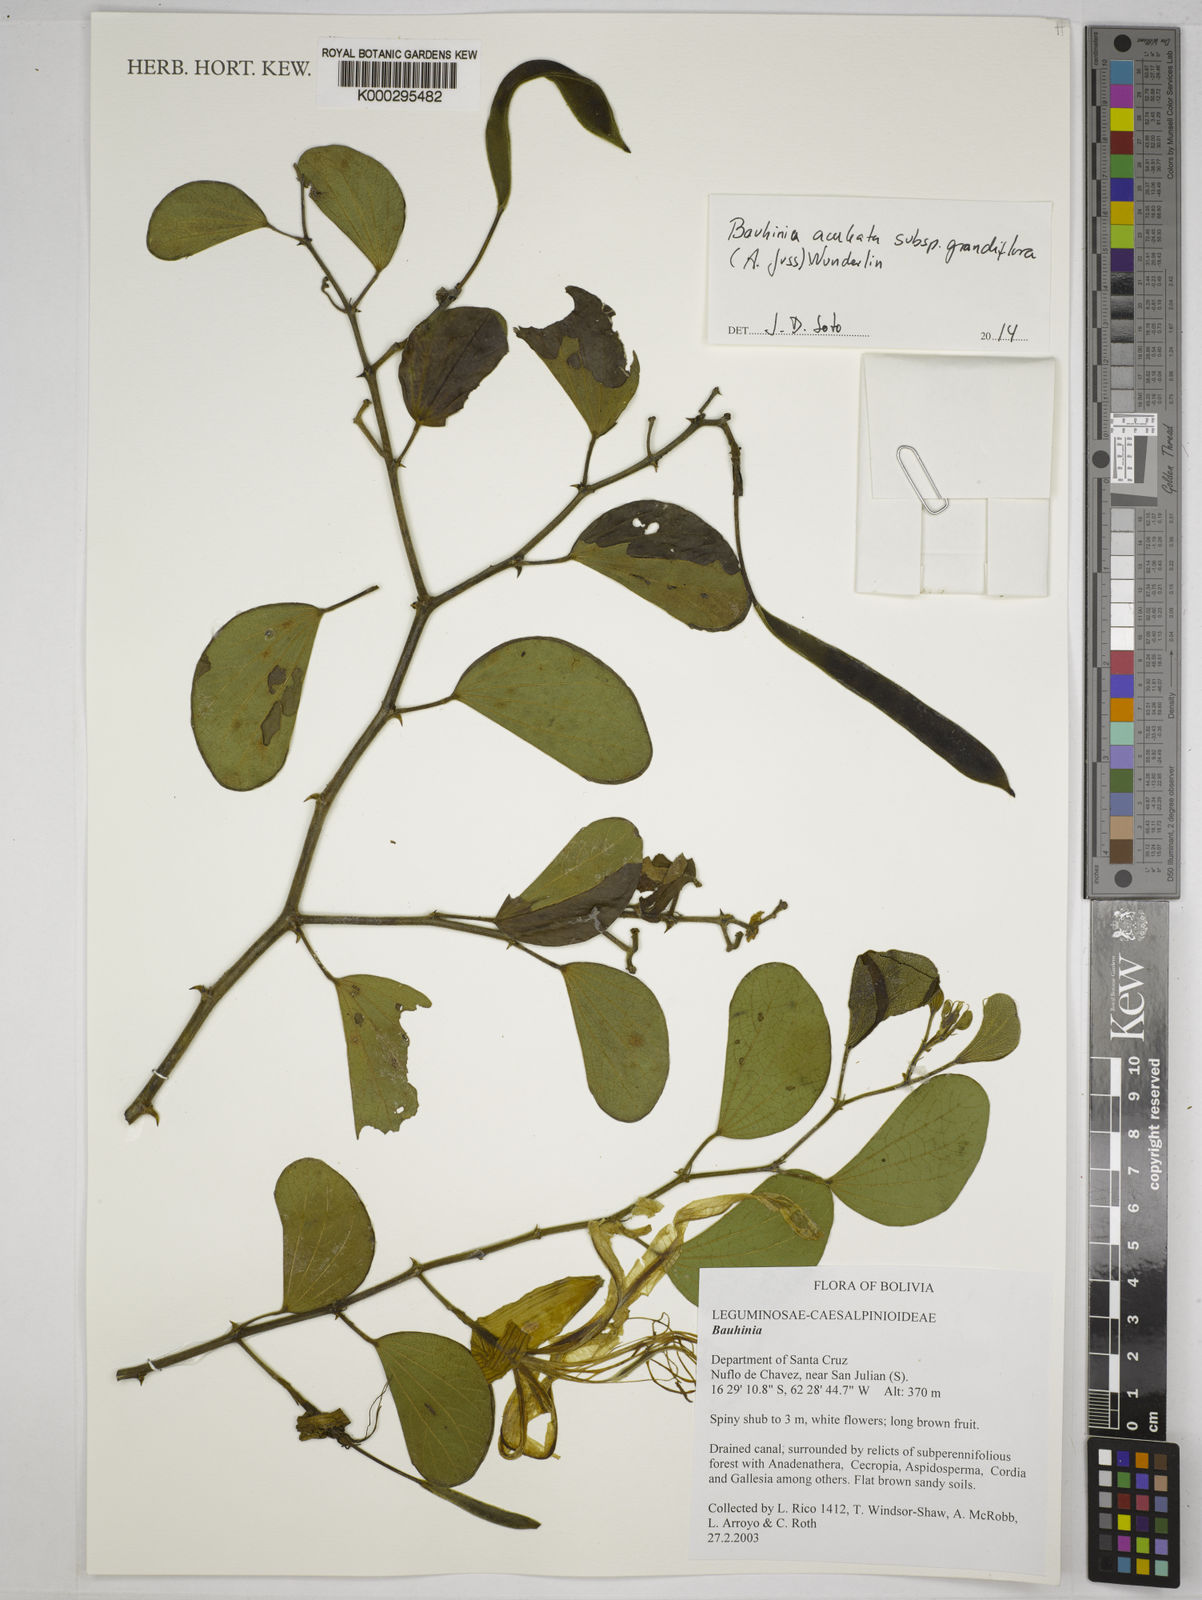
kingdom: Plantae
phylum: Tracheophyta
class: Magnoliopsida
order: Fabales
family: Fabaceae
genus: Bauhinia
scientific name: Bauhinia
